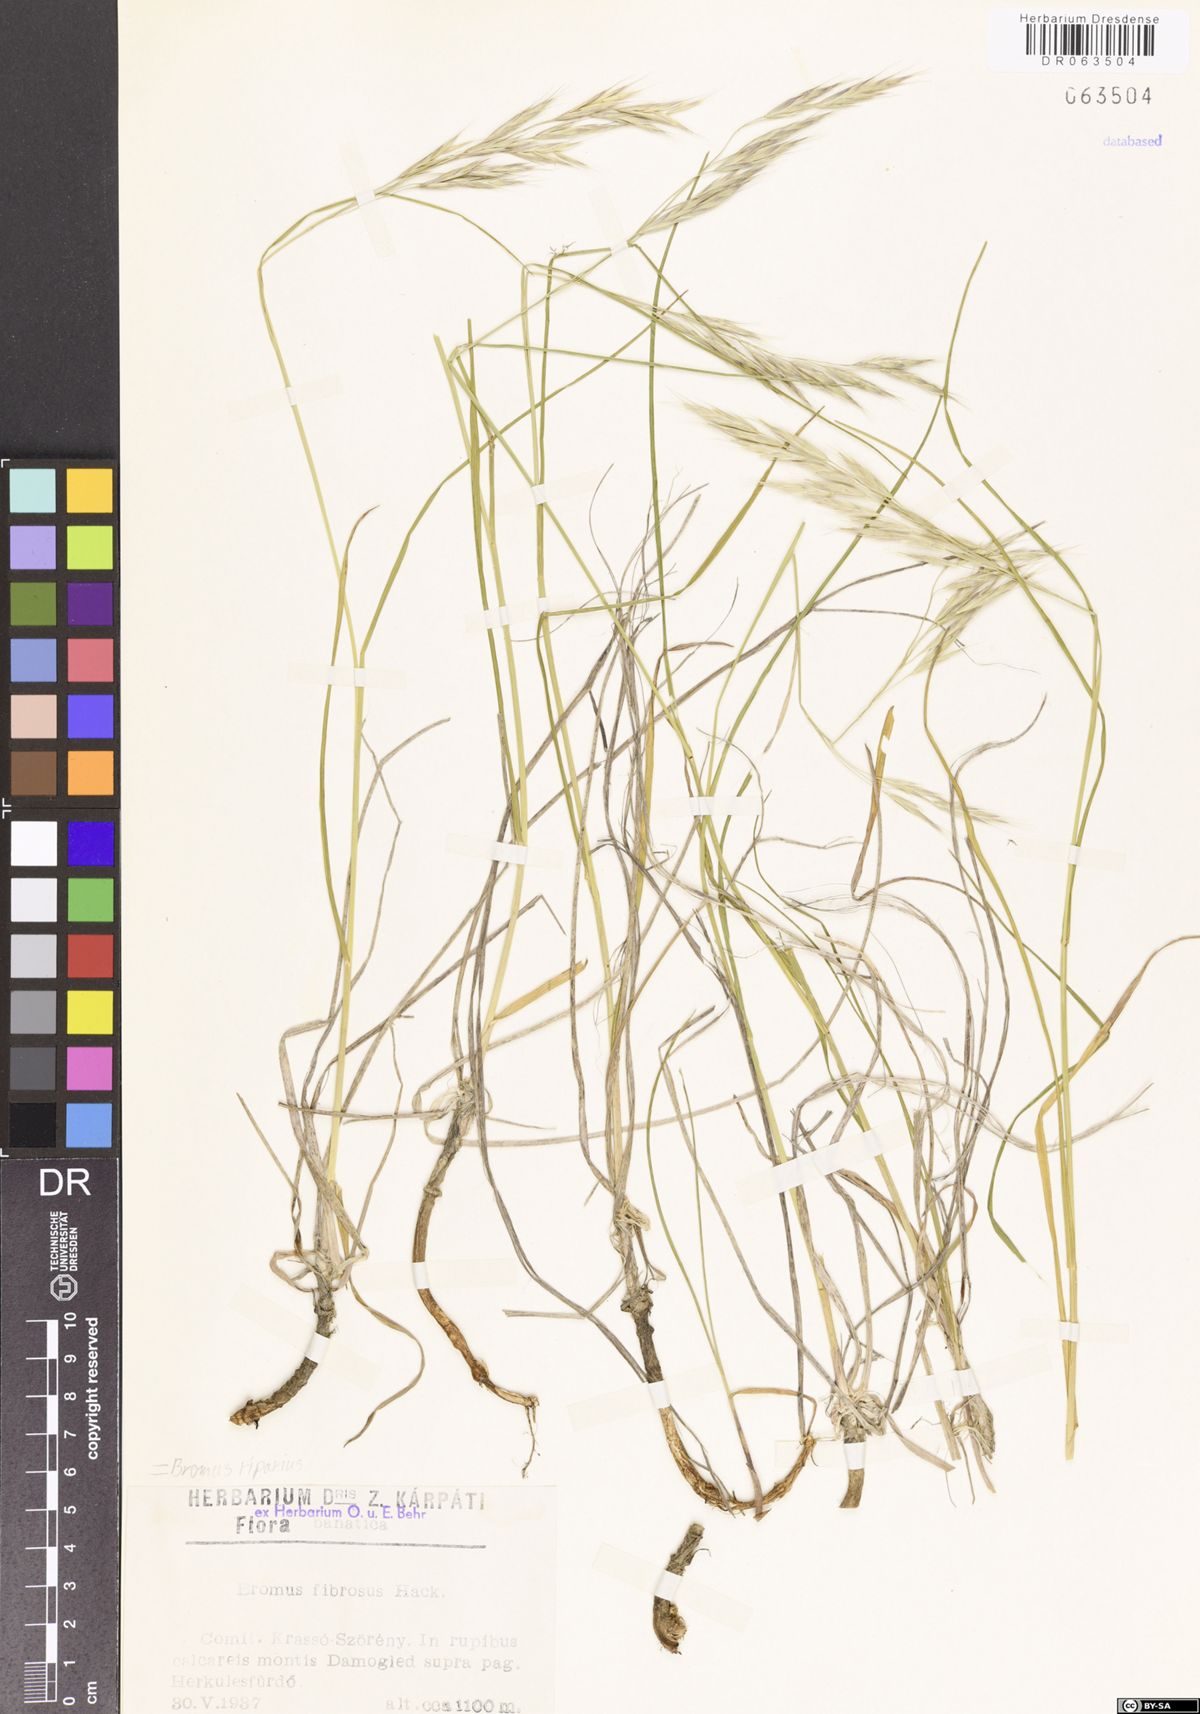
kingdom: Plantae
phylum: Tracheophyta
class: Liliopsida
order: Poales
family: Poaceae
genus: Bromus
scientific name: Bromus riparius
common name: Meadow brome
